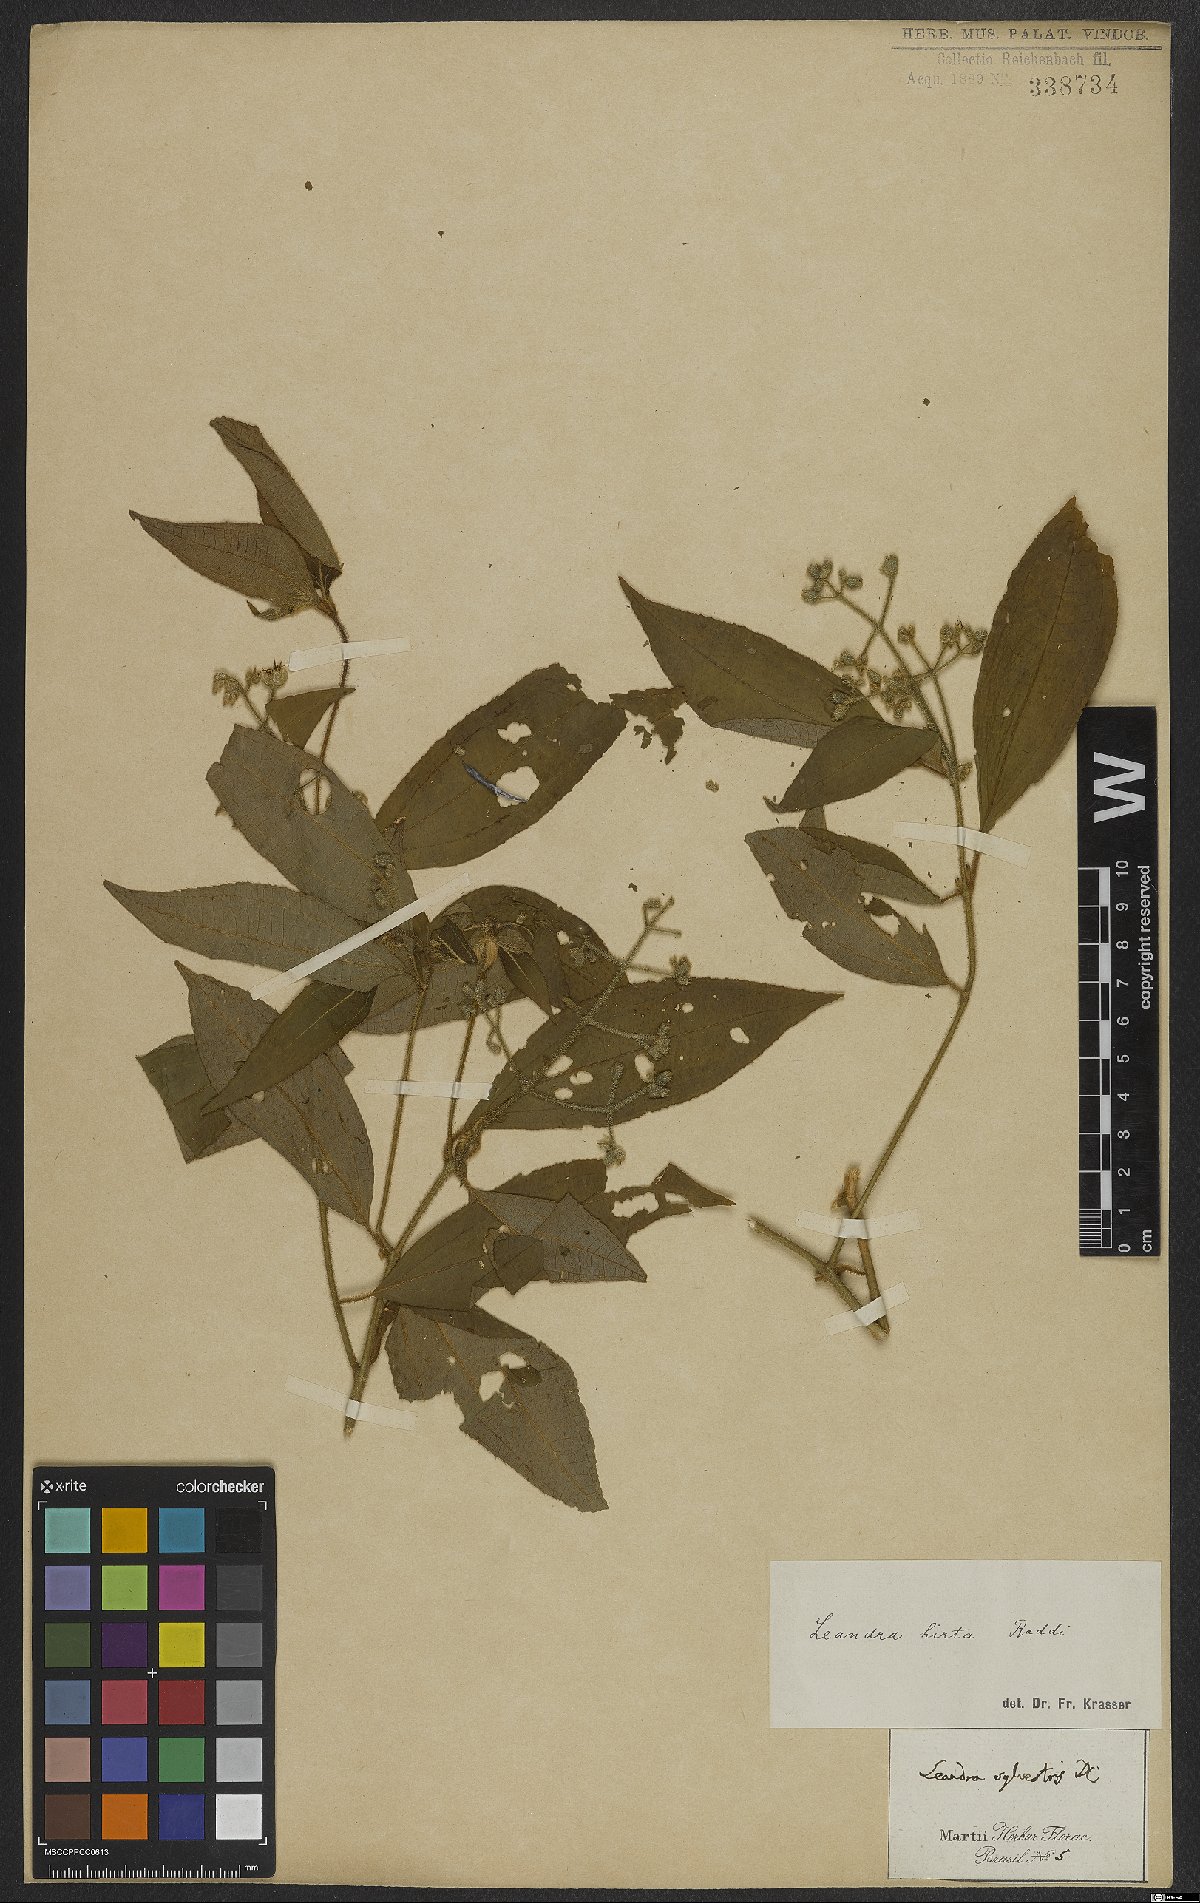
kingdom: Plantae
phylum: Tracheophyta
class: Magnoliopsida
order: Myrtales
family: Melastomataceae
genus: Miconia
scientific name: Miconia dubia
